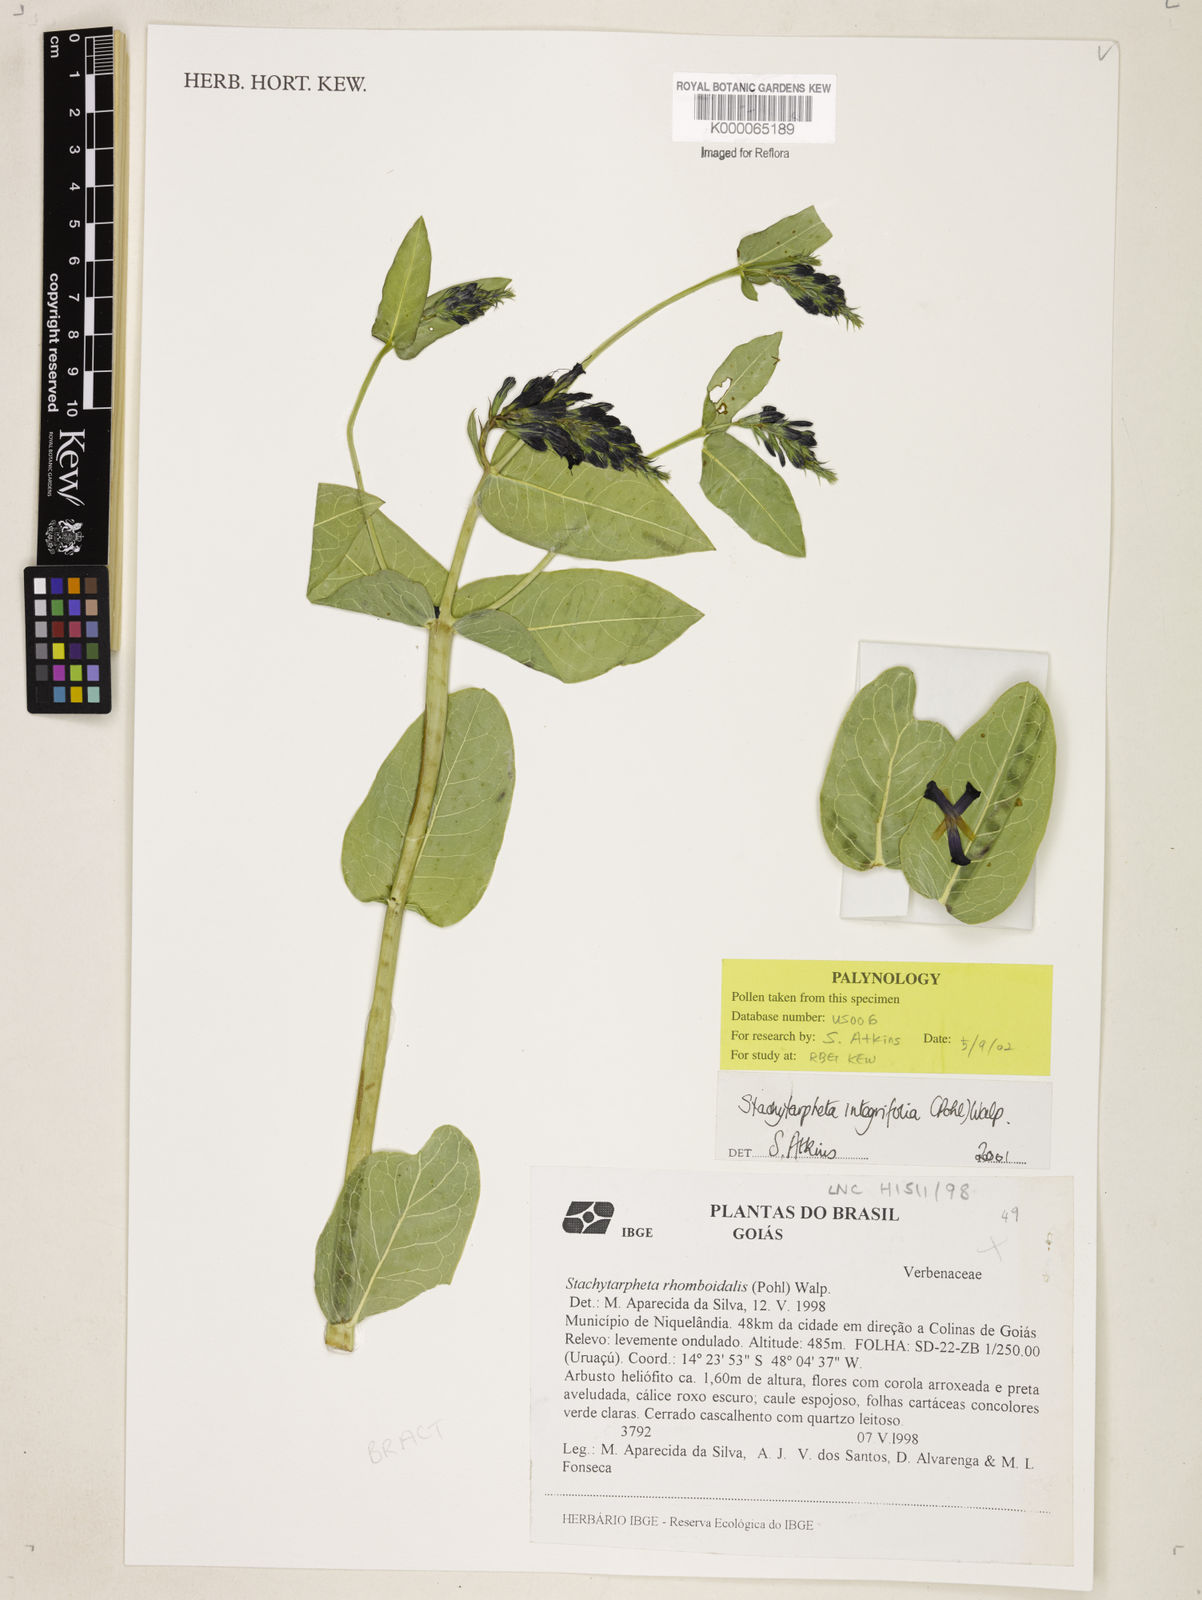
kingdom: Plantae
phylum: Tracheophyta
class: Magnoliopsida
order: Lamiales
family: Verbenaceae
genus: Stachytarpheta
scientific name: Stachytarpheta integrifolia
